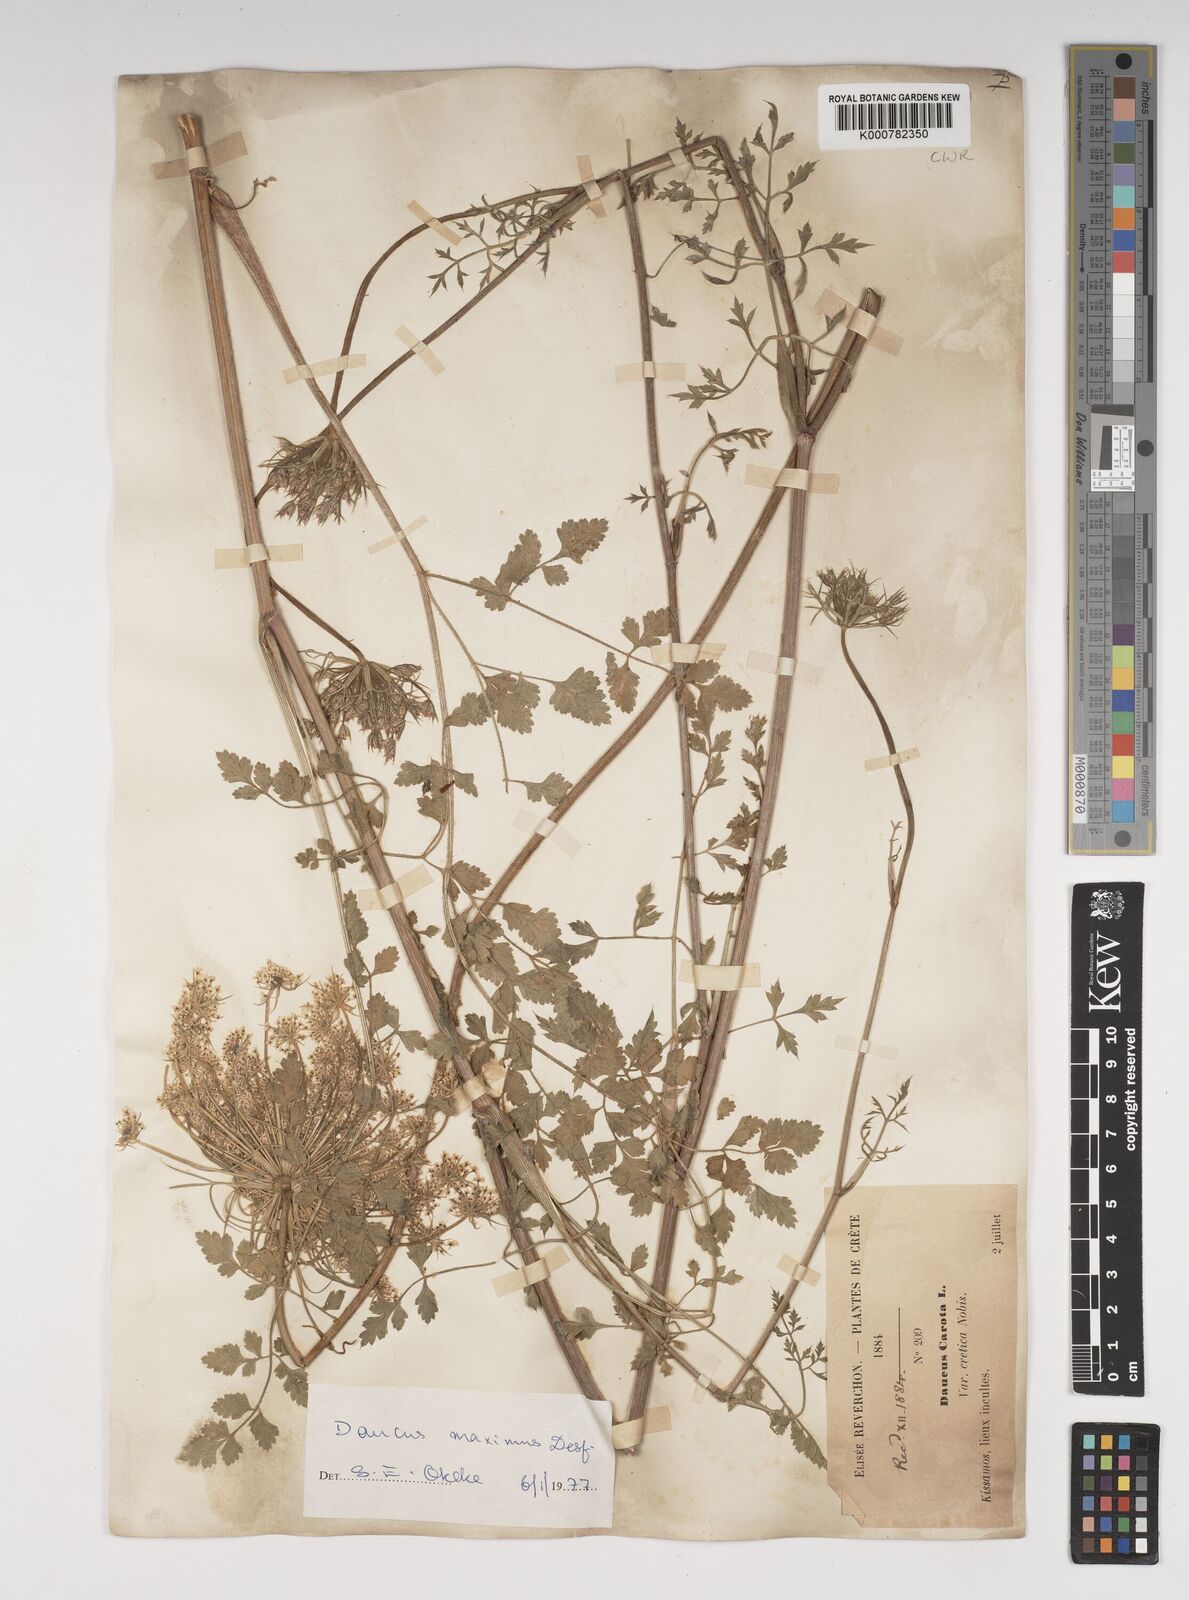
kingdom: Plantae
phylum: Tracheophyta
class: Magnoliopsida
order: Apiales
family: Apiaceae
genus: Daucus
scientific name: Daucus carota
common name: Wild carrot
